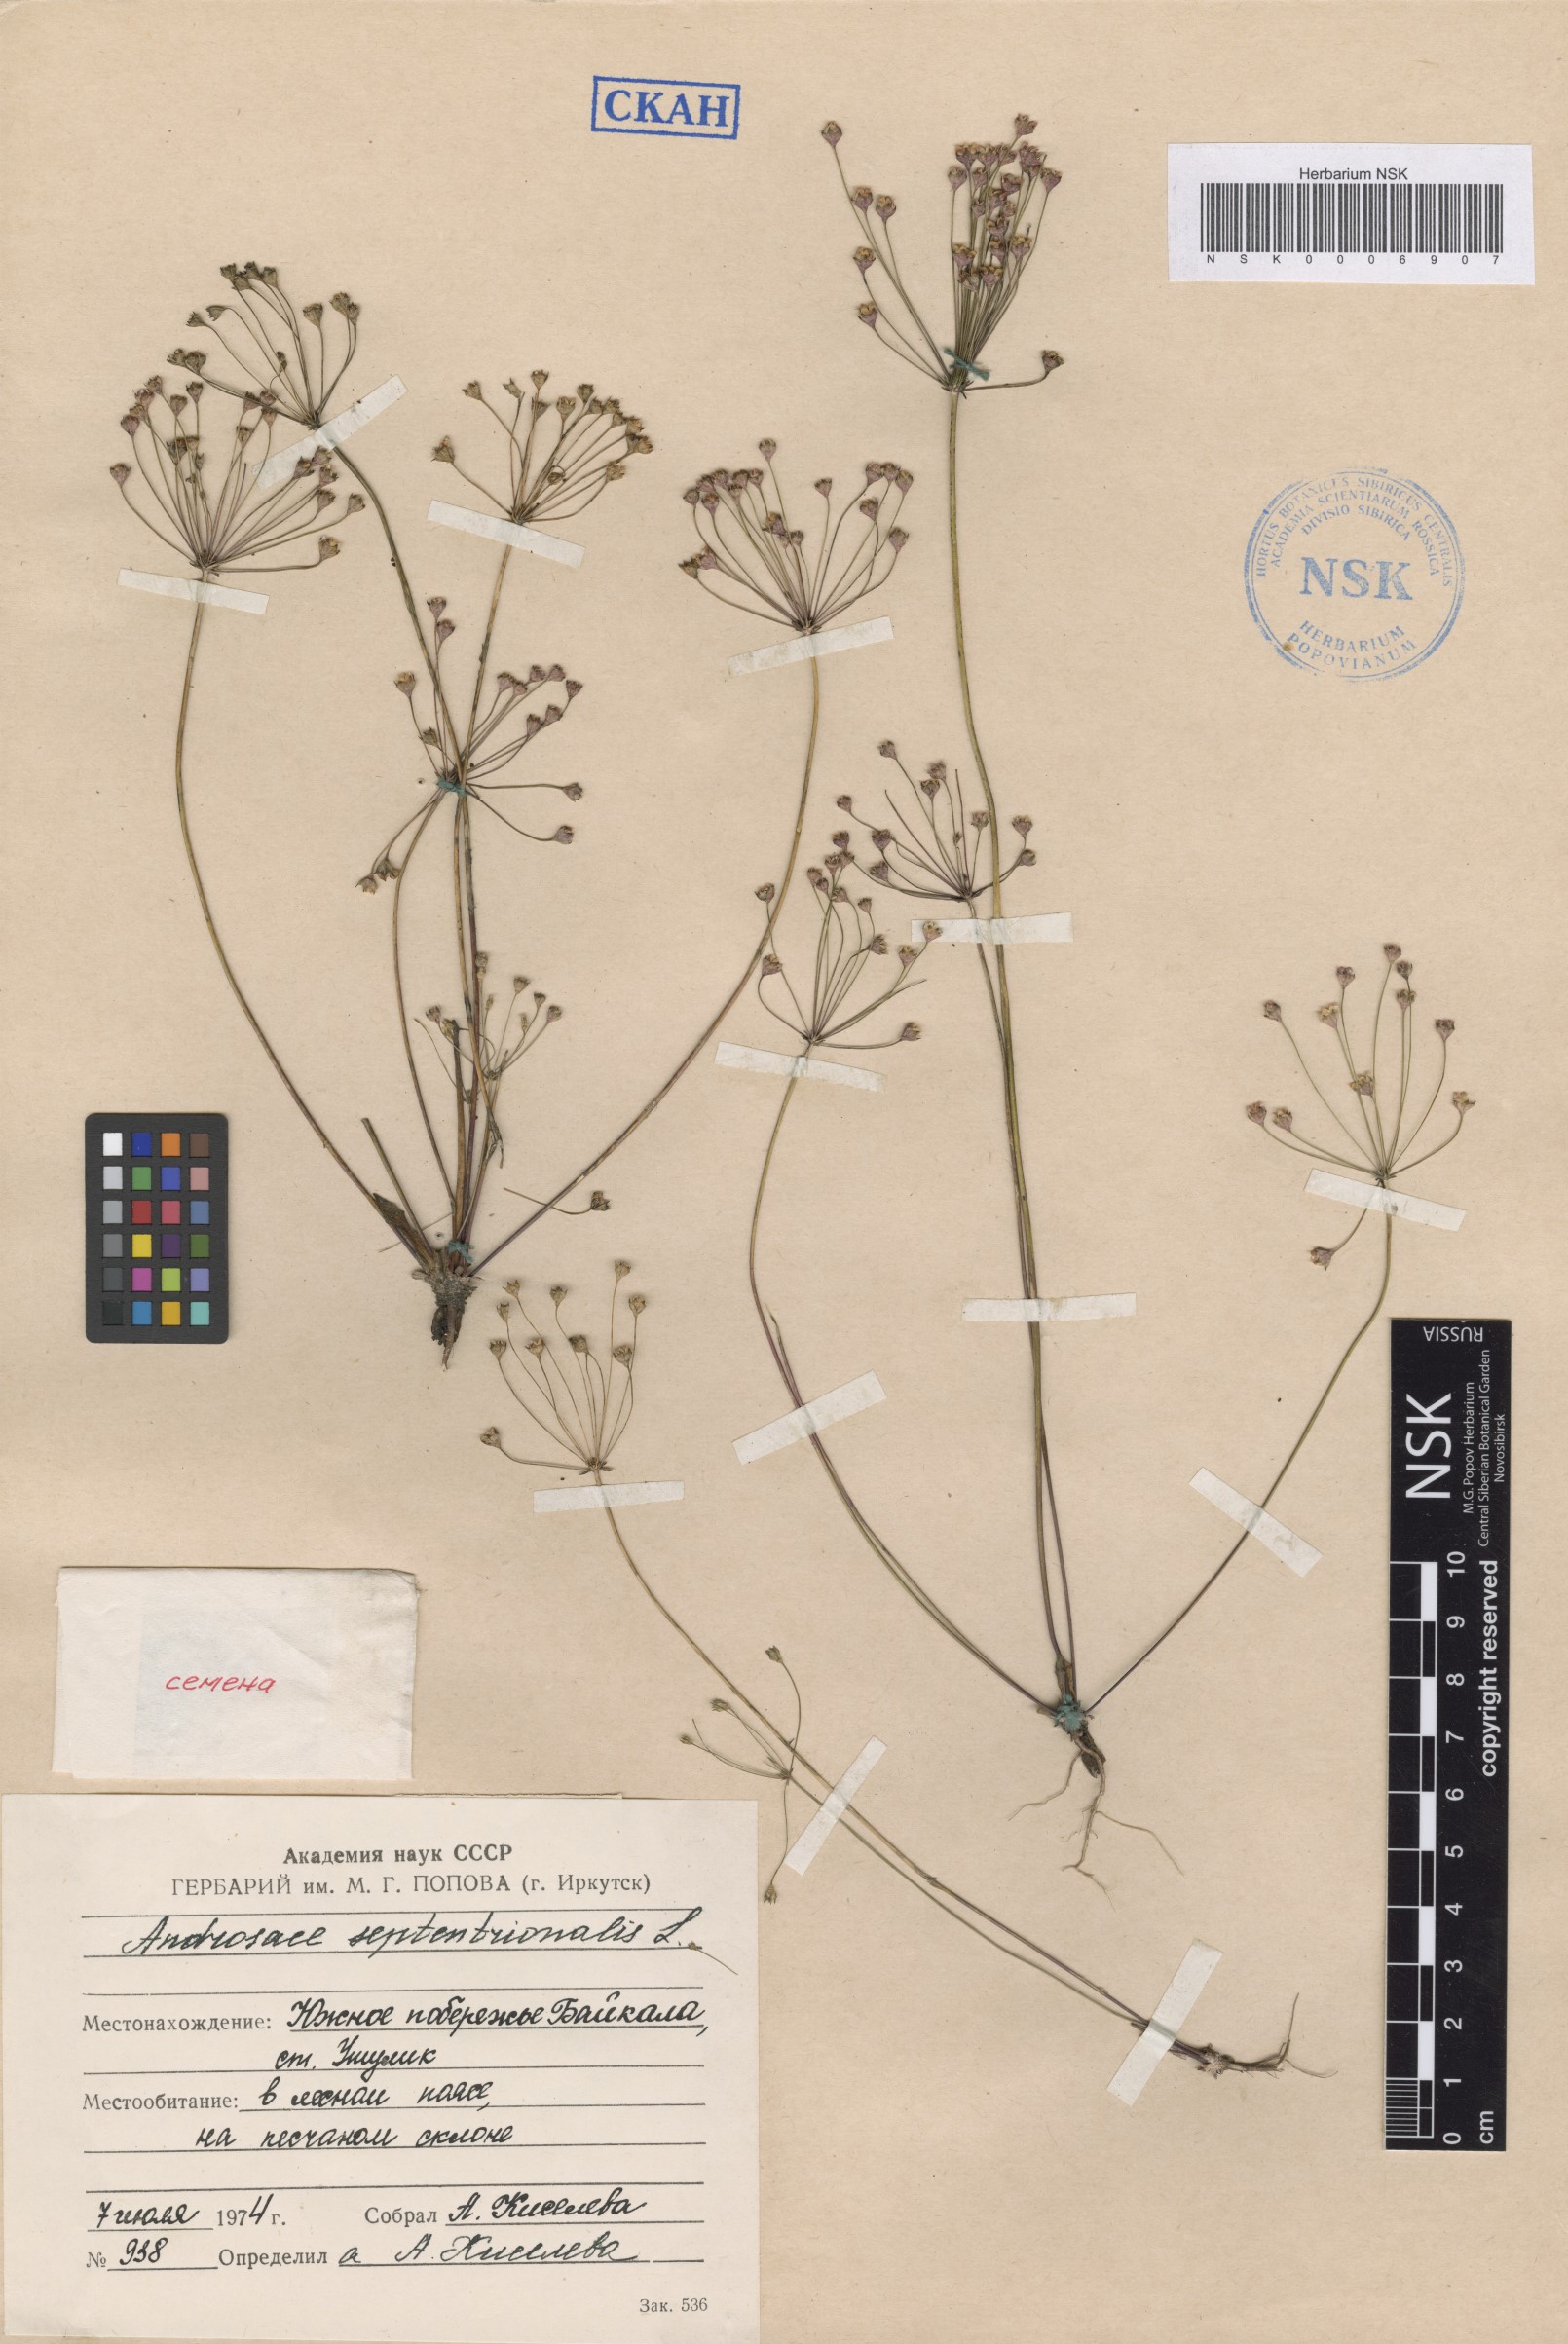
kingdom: Plantae
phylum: Tracheophyta
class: Magnoliopsida
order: Ericales
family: Primulaceae
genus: Androsace
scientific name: Androsace septentrionalis
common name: Hairy northern fairy-candelabra
